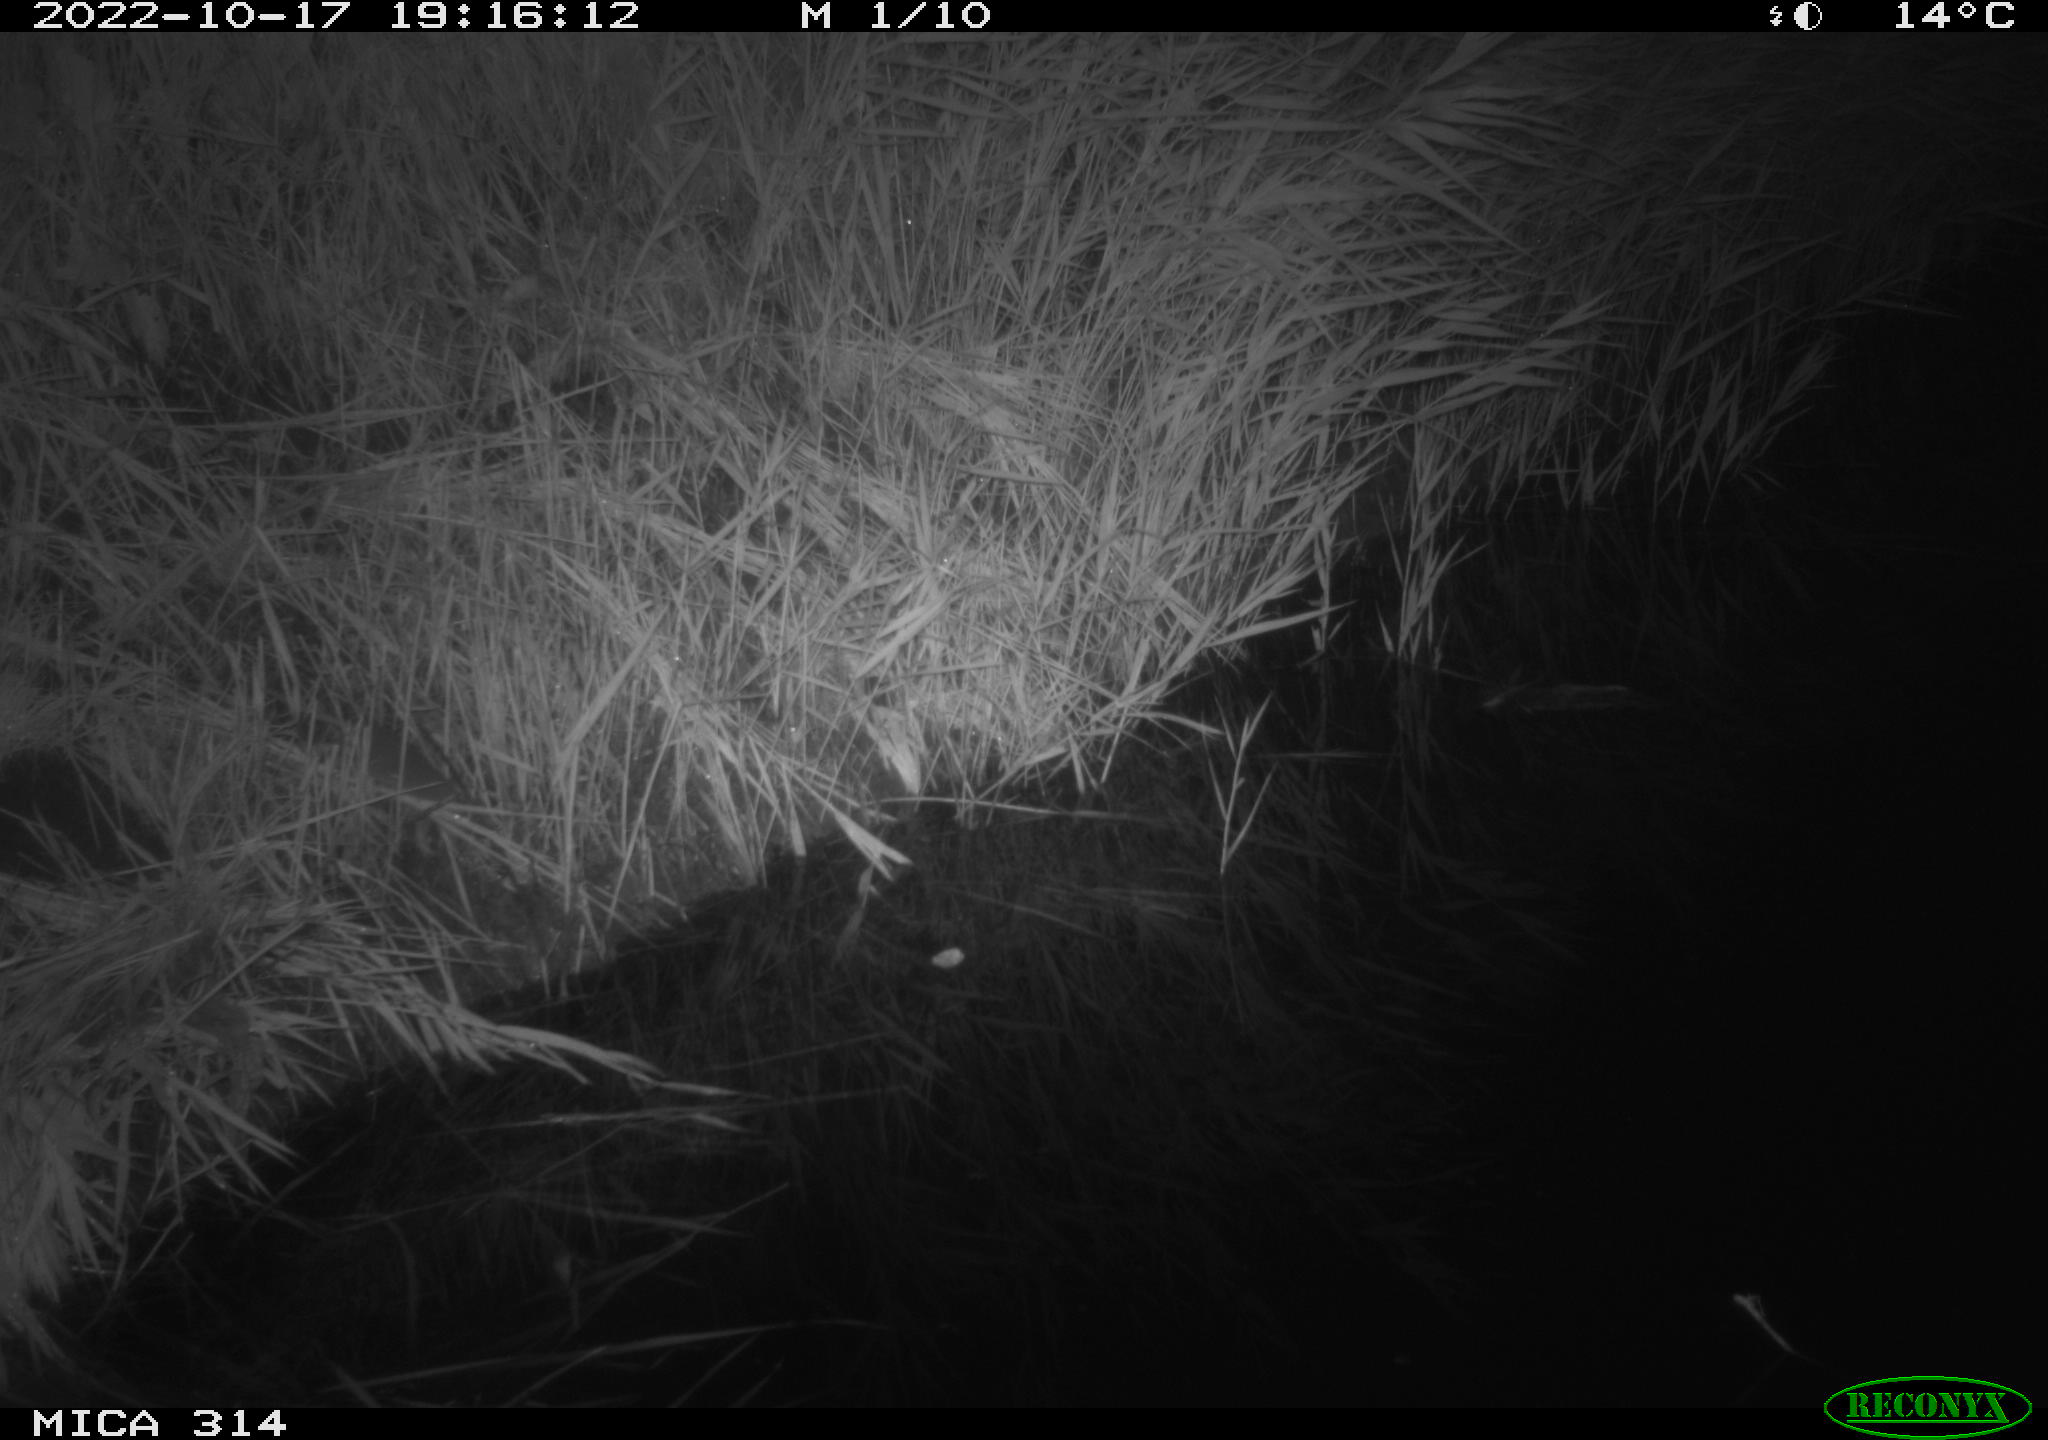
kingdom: Animalia
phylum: Chordata
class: Mammalia
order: Rodentia
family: Muridae
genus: Rattus
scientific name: Rattus norvegicus
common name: Brown rat
